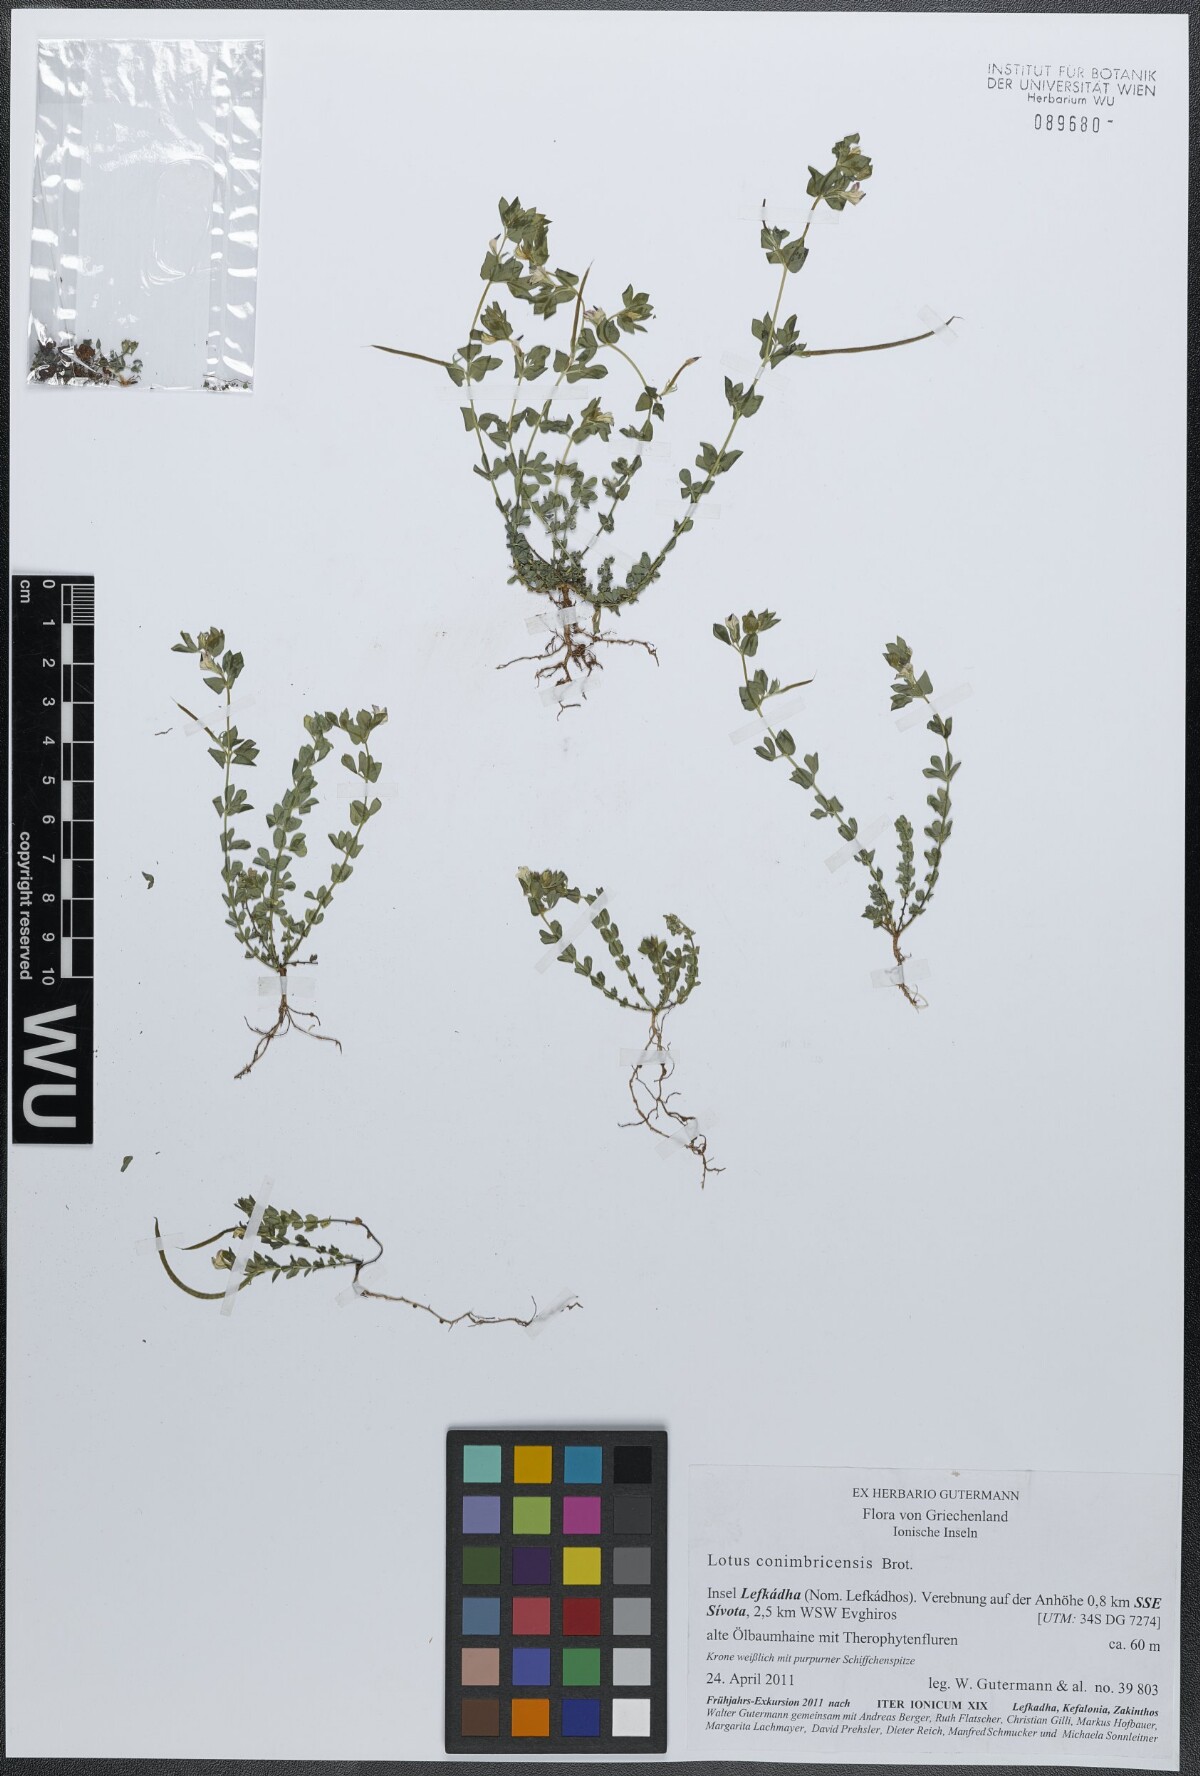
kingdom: Plantae
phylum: Tracheophyta
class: Magnoliopsida
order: Fabales
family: Fabaceae
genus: Lotus
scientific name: Lotus conimbricensis
